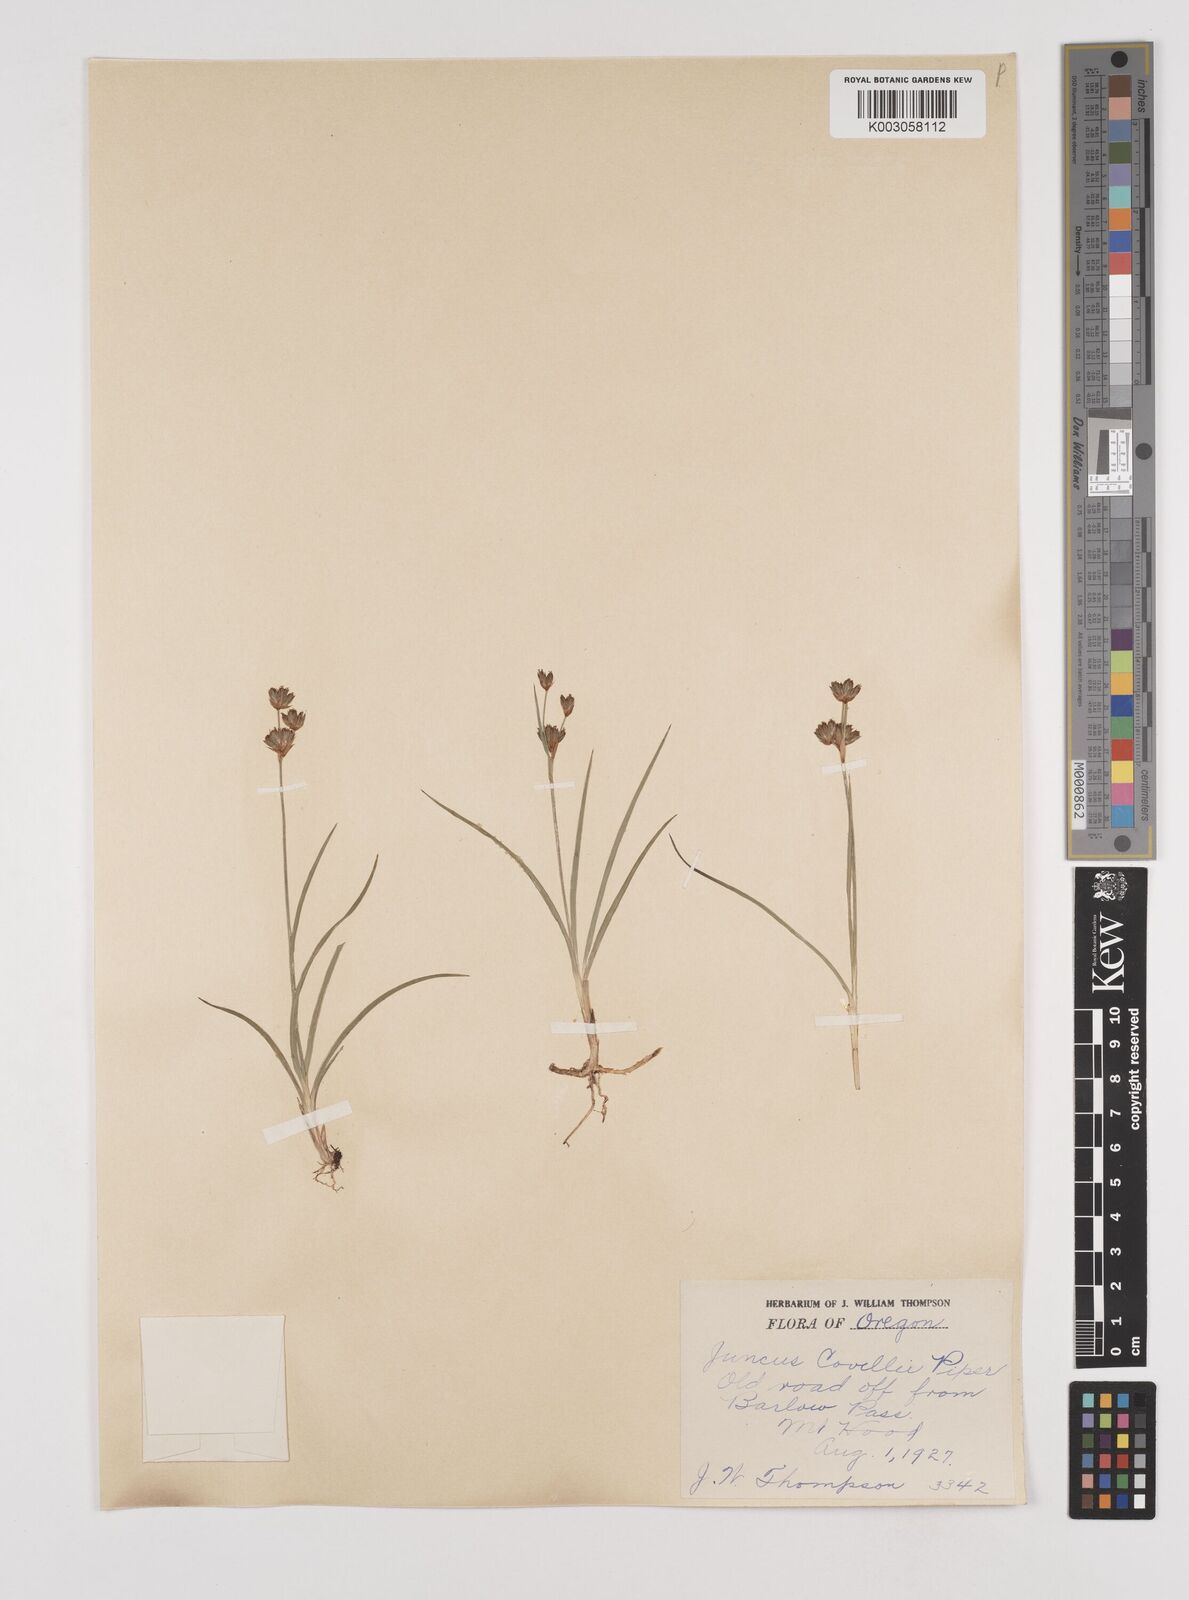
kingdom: Plantae
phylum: Tracheophyta
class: Liliopsida
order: Poales
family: Juncaceae
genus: Juncus
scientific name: Juncus covillei
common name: Coville's rush
